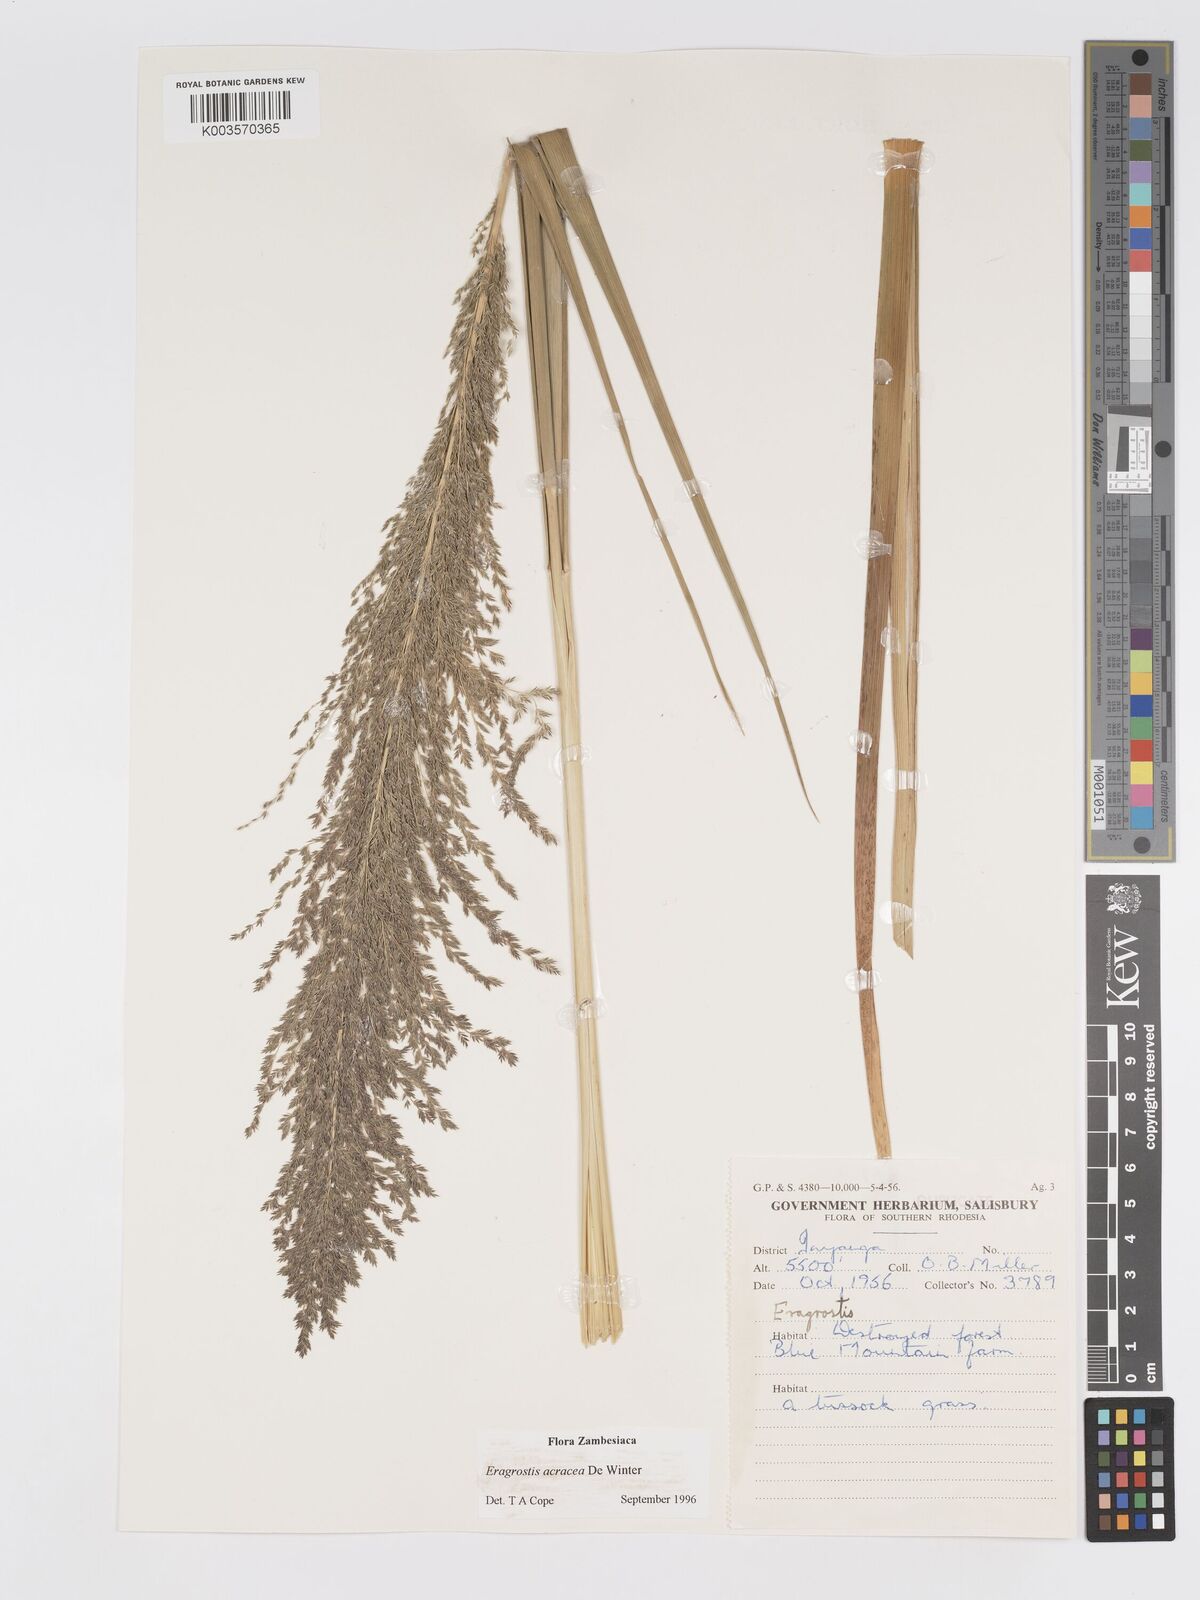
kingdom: Plantae
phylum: Tracheophyta
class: Liliopsida
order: Poales
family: Poaceae
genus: Eragrostis
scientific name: Eragrostis acraea
